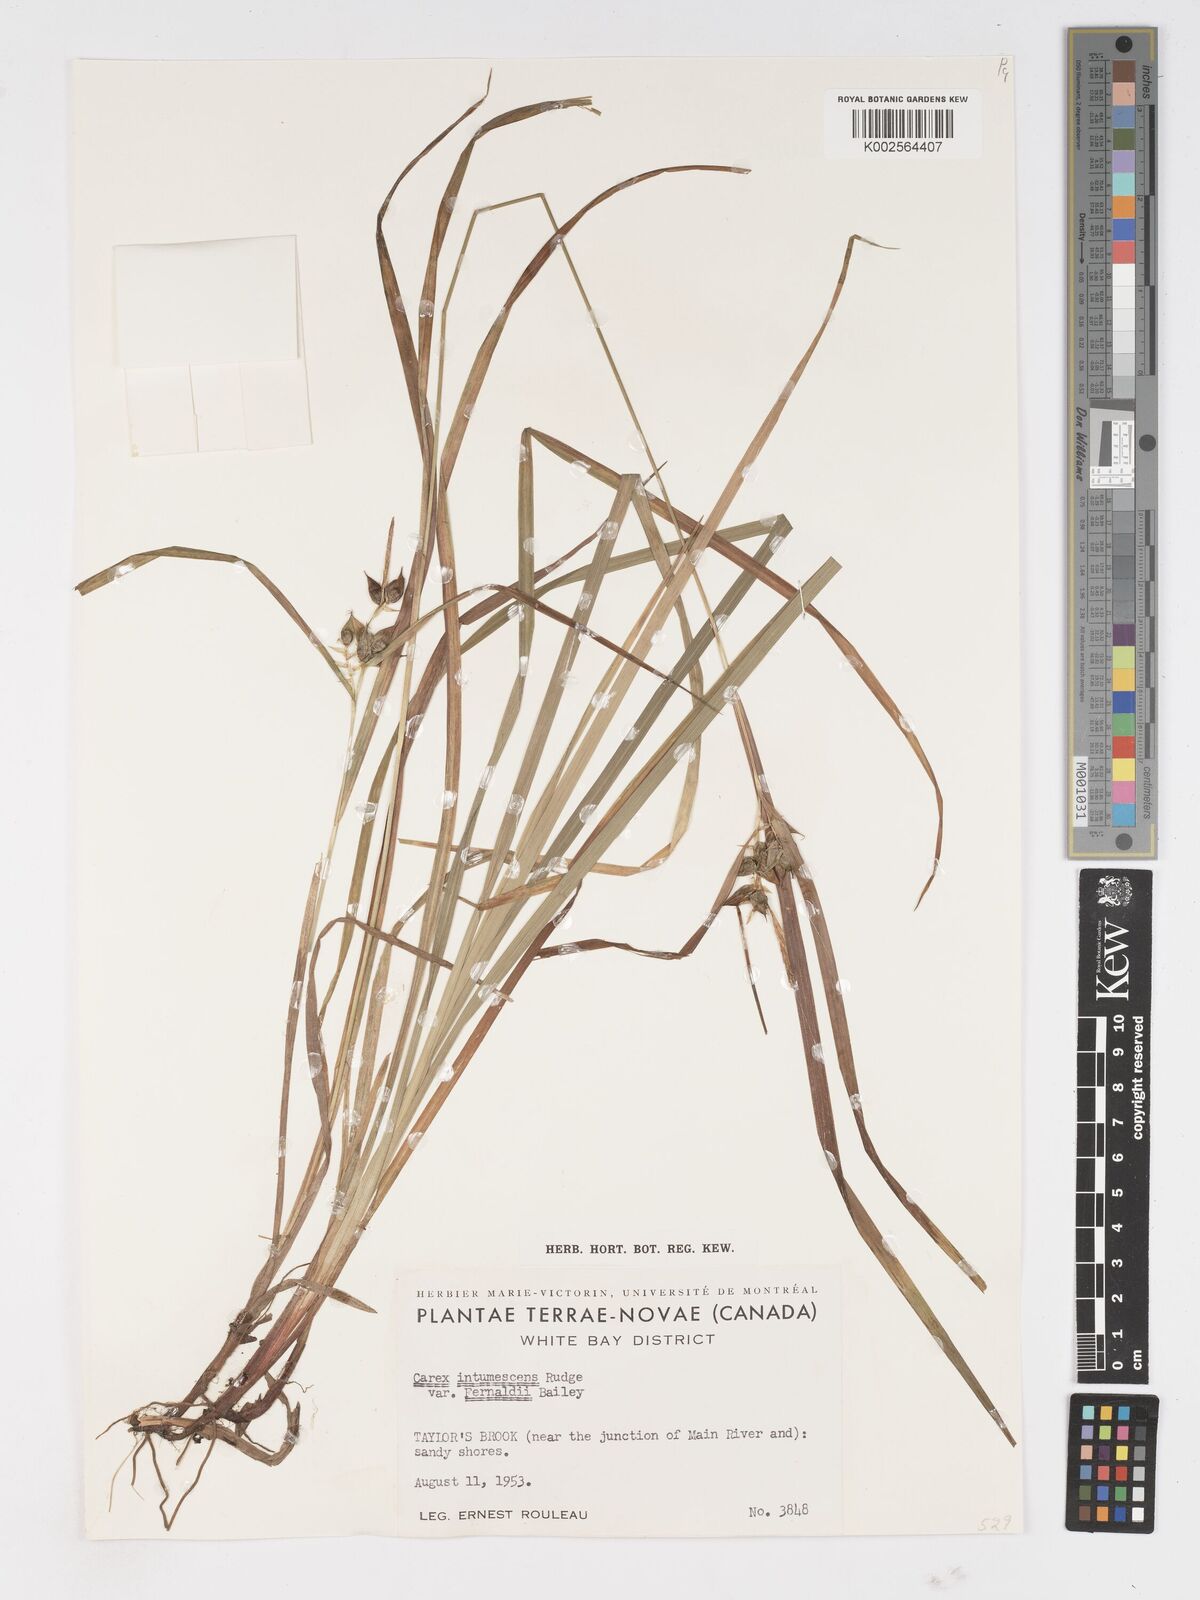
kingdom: Plantae
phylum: Tracheophyta
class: Liliopsida
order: Poales
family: Cyperaceae
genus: Carex
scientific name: Carex intumescens
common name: Greater bladder sedge
